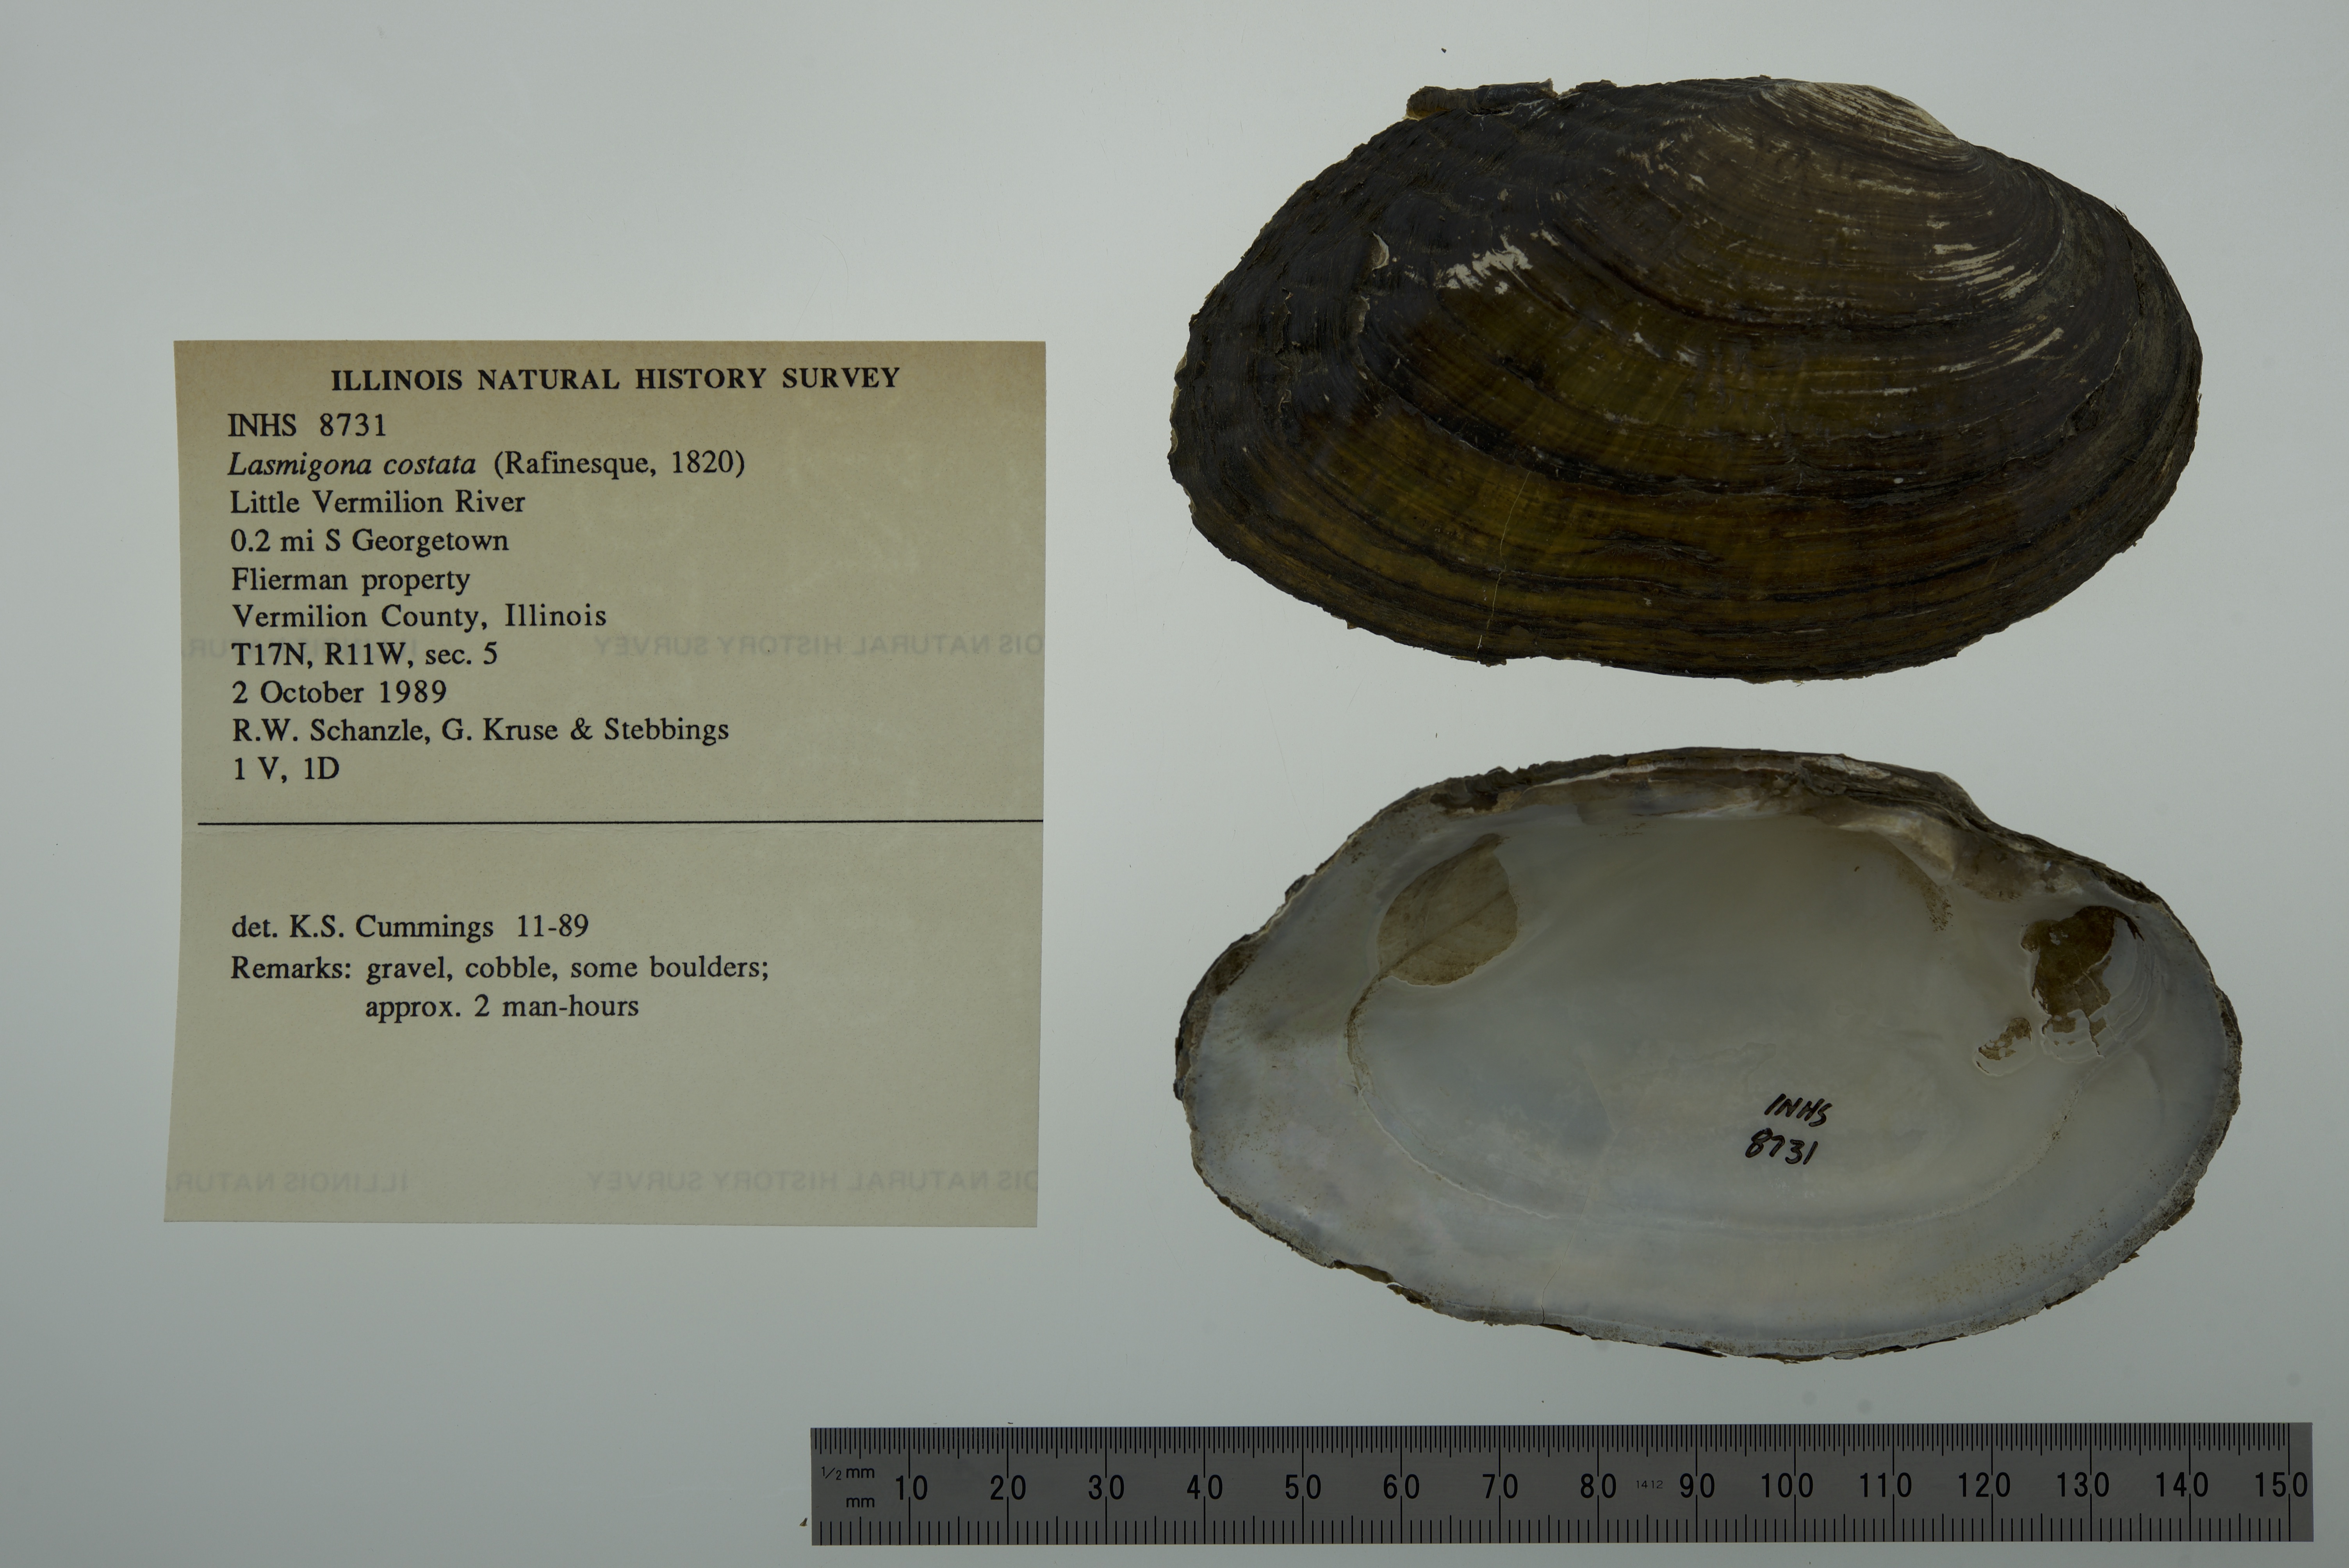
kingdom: Animalia
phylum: Mollusca
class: Bivalvia
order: Unionida
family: Unionidae
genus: Lasmigona
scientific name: Lasmigona costata
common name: Flutedshell
